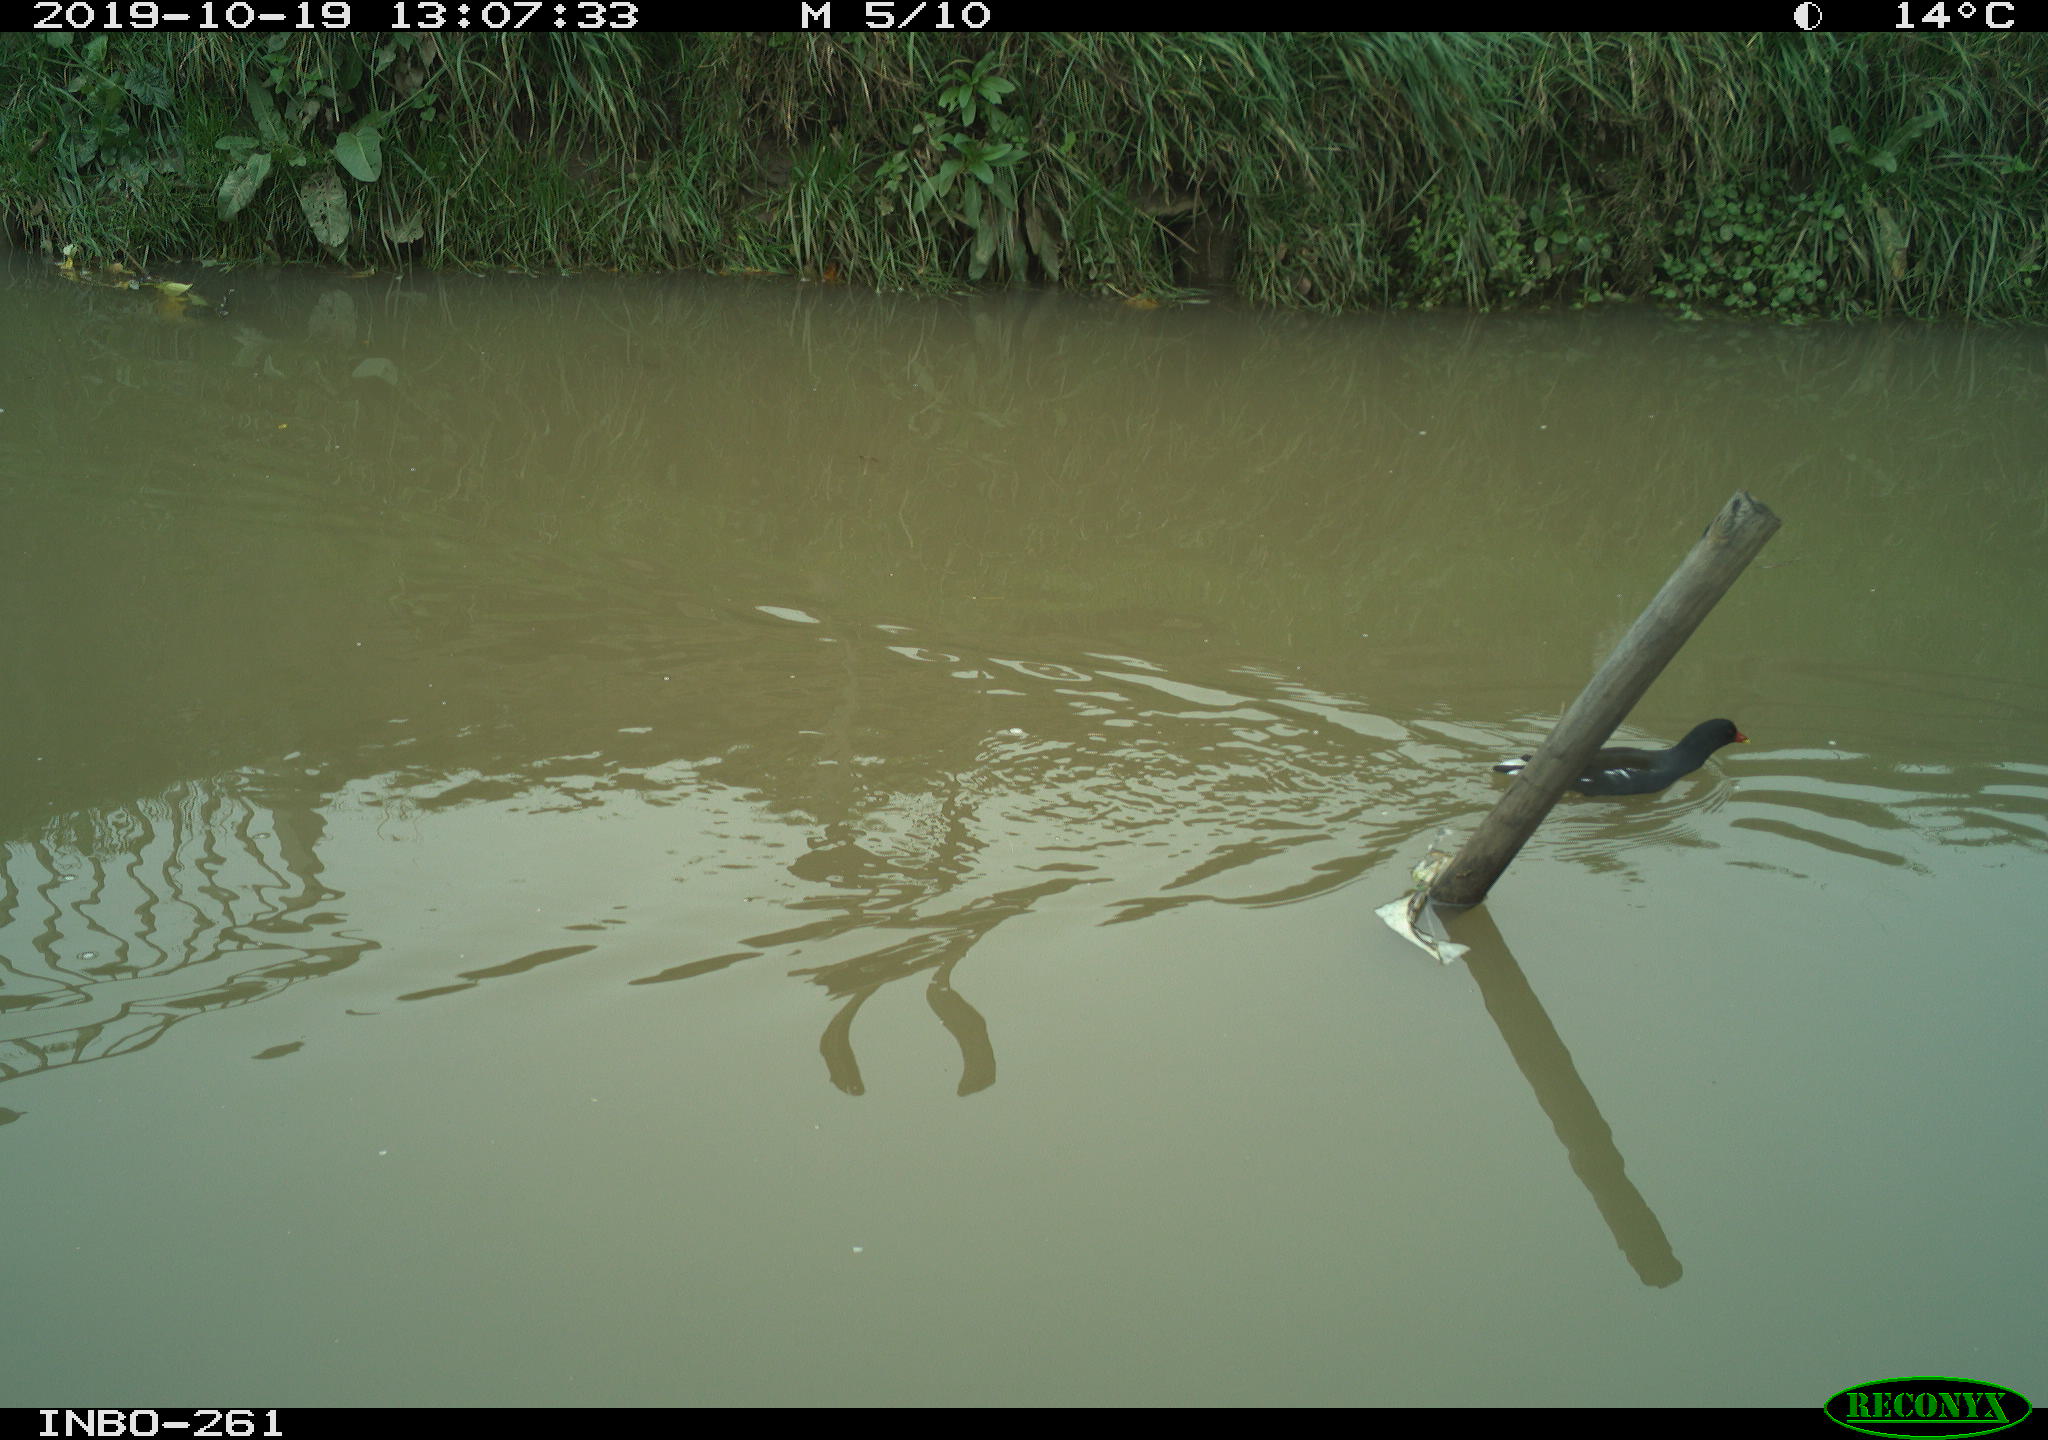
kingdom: Animalia
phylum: Chordata
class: Aves
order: Gruiformes
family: Rallidae
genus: Gallinula
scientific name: Gallinula chloropus
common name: Common moorhen
